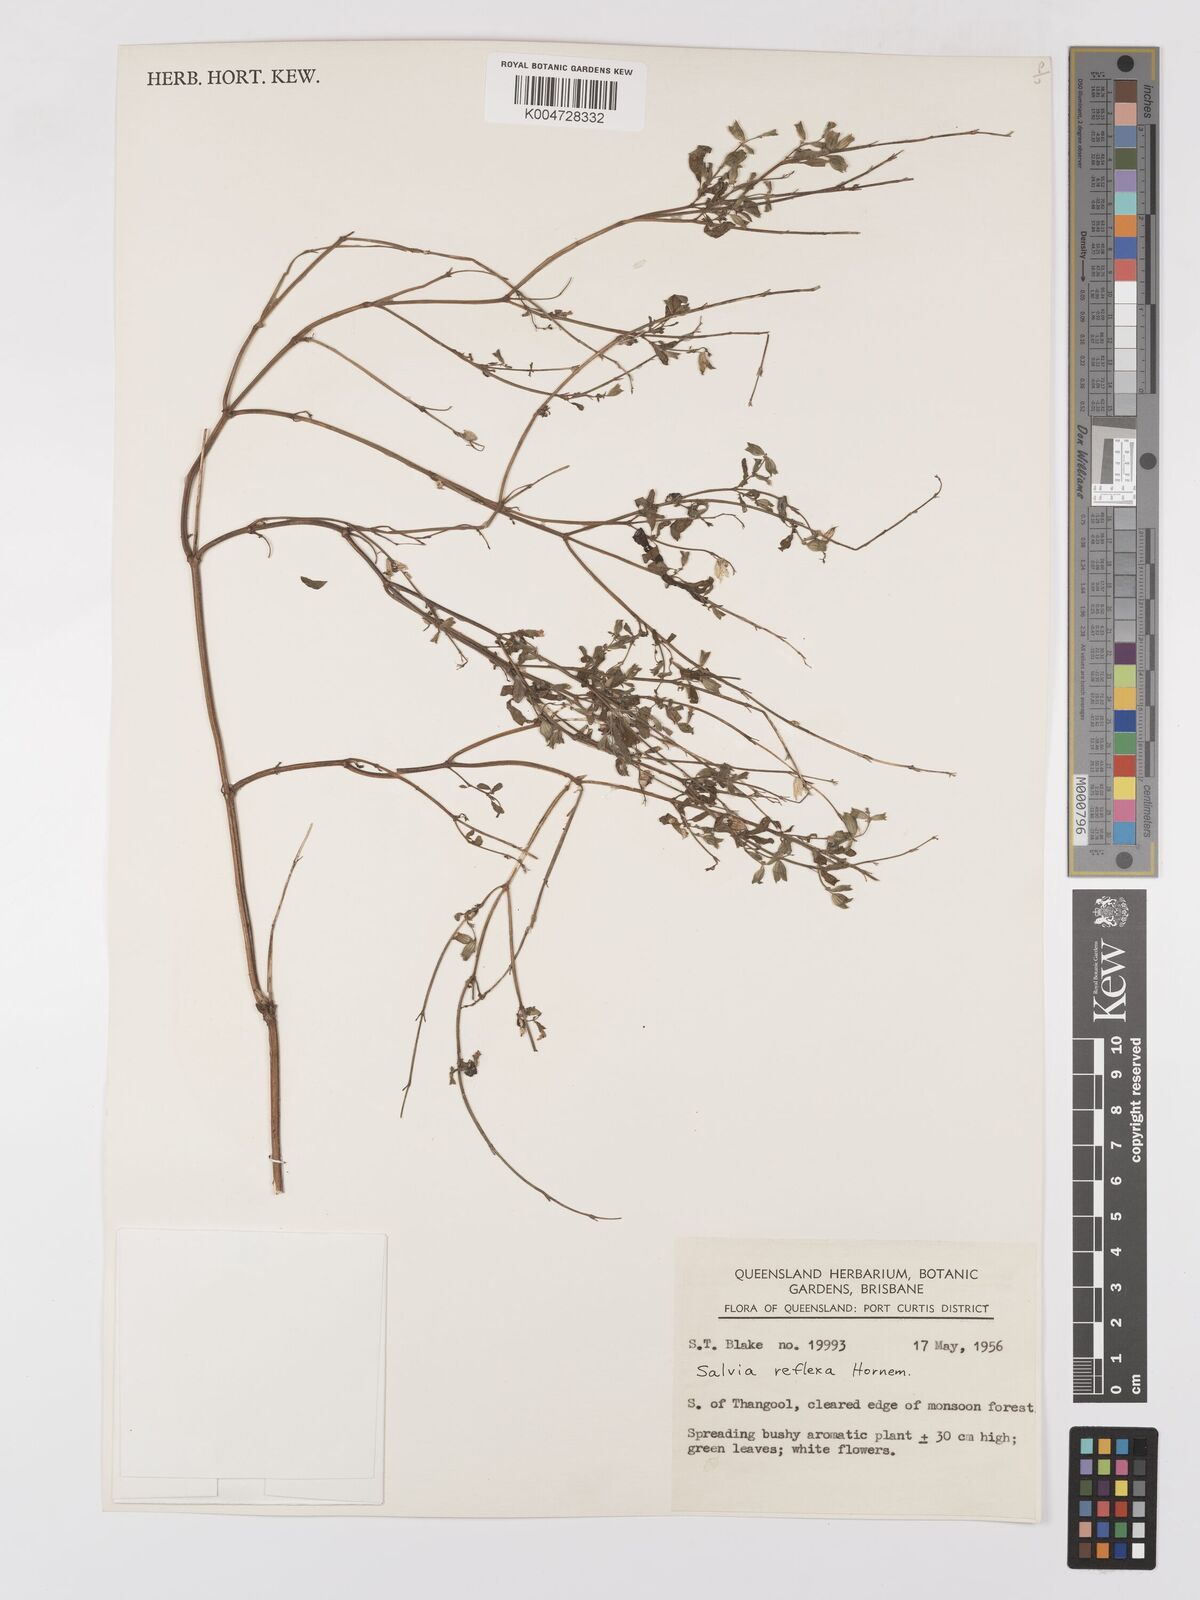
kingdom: Plantae
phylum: Tracheophyta
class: Magnoliopsida
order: Lamiales
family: Lamiaceae
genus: Salvia
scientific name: Salvia reflexa
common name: Mintweed
